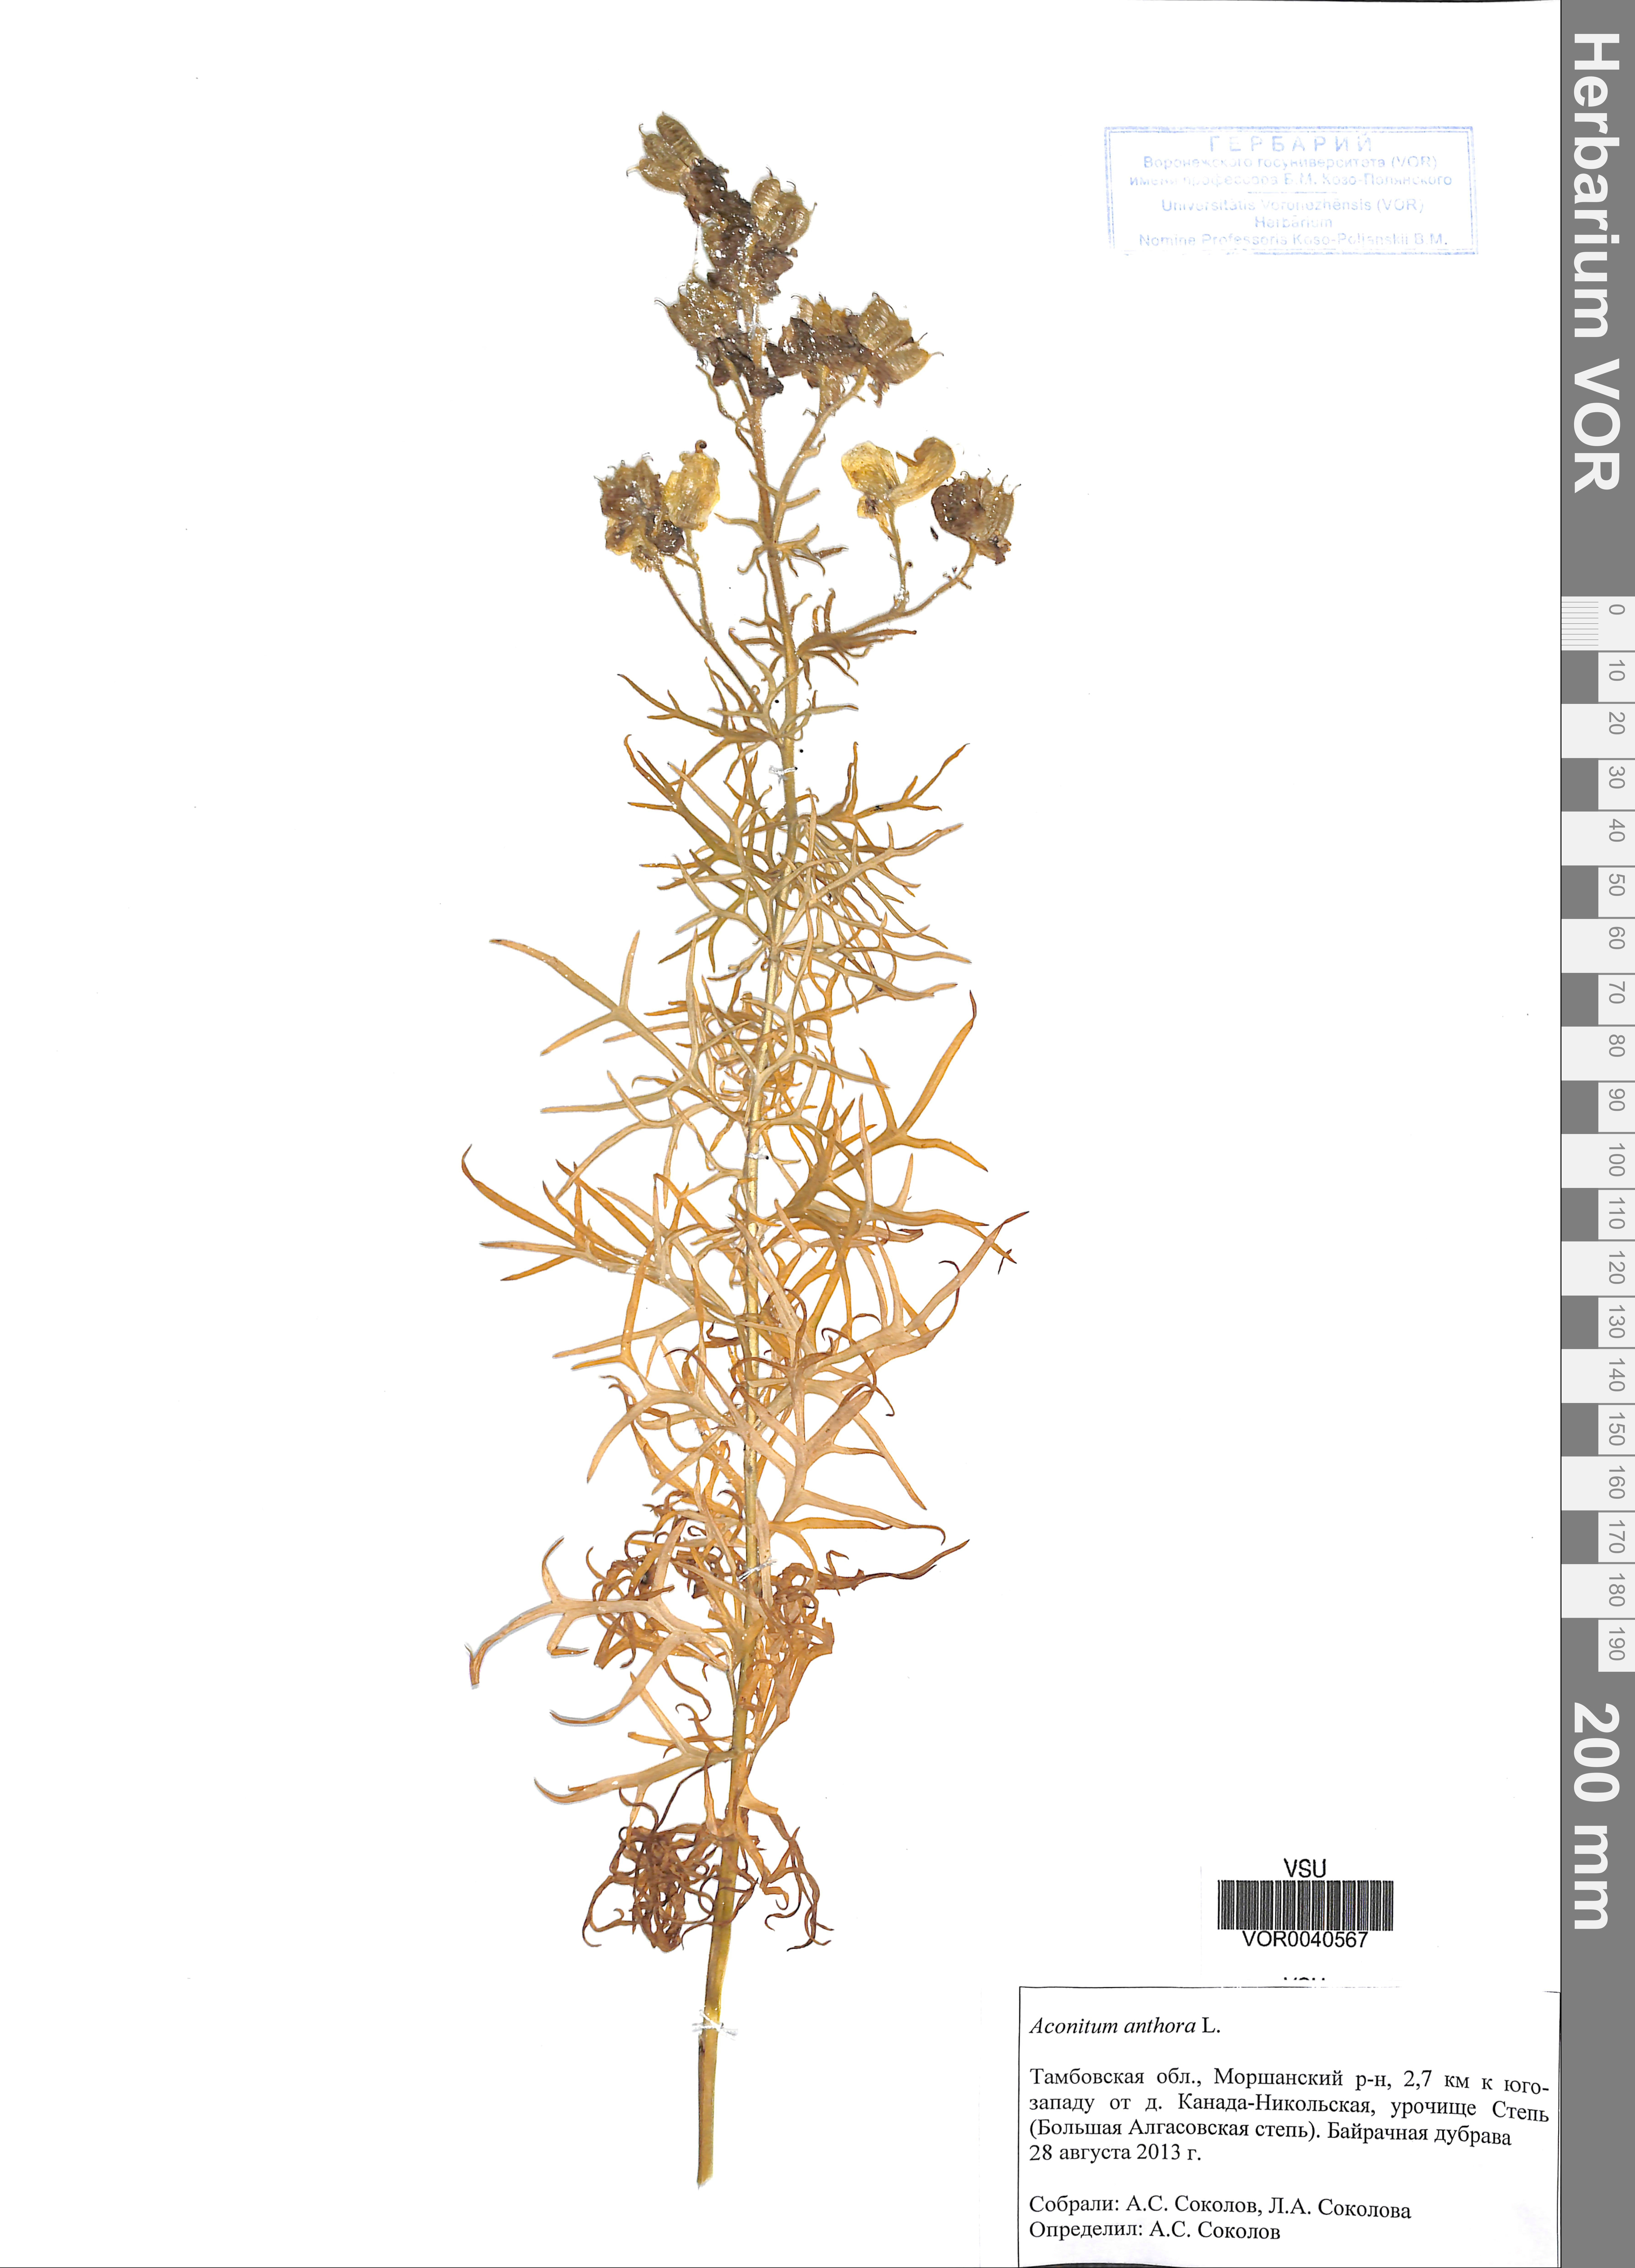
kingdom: Plantae
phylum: Tracheophyta
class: Magnoliopsida
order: Ranunculales
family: Ranunculaceae
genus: Aconitum
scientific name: Aconitum anthora
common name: Yellow monkshood
